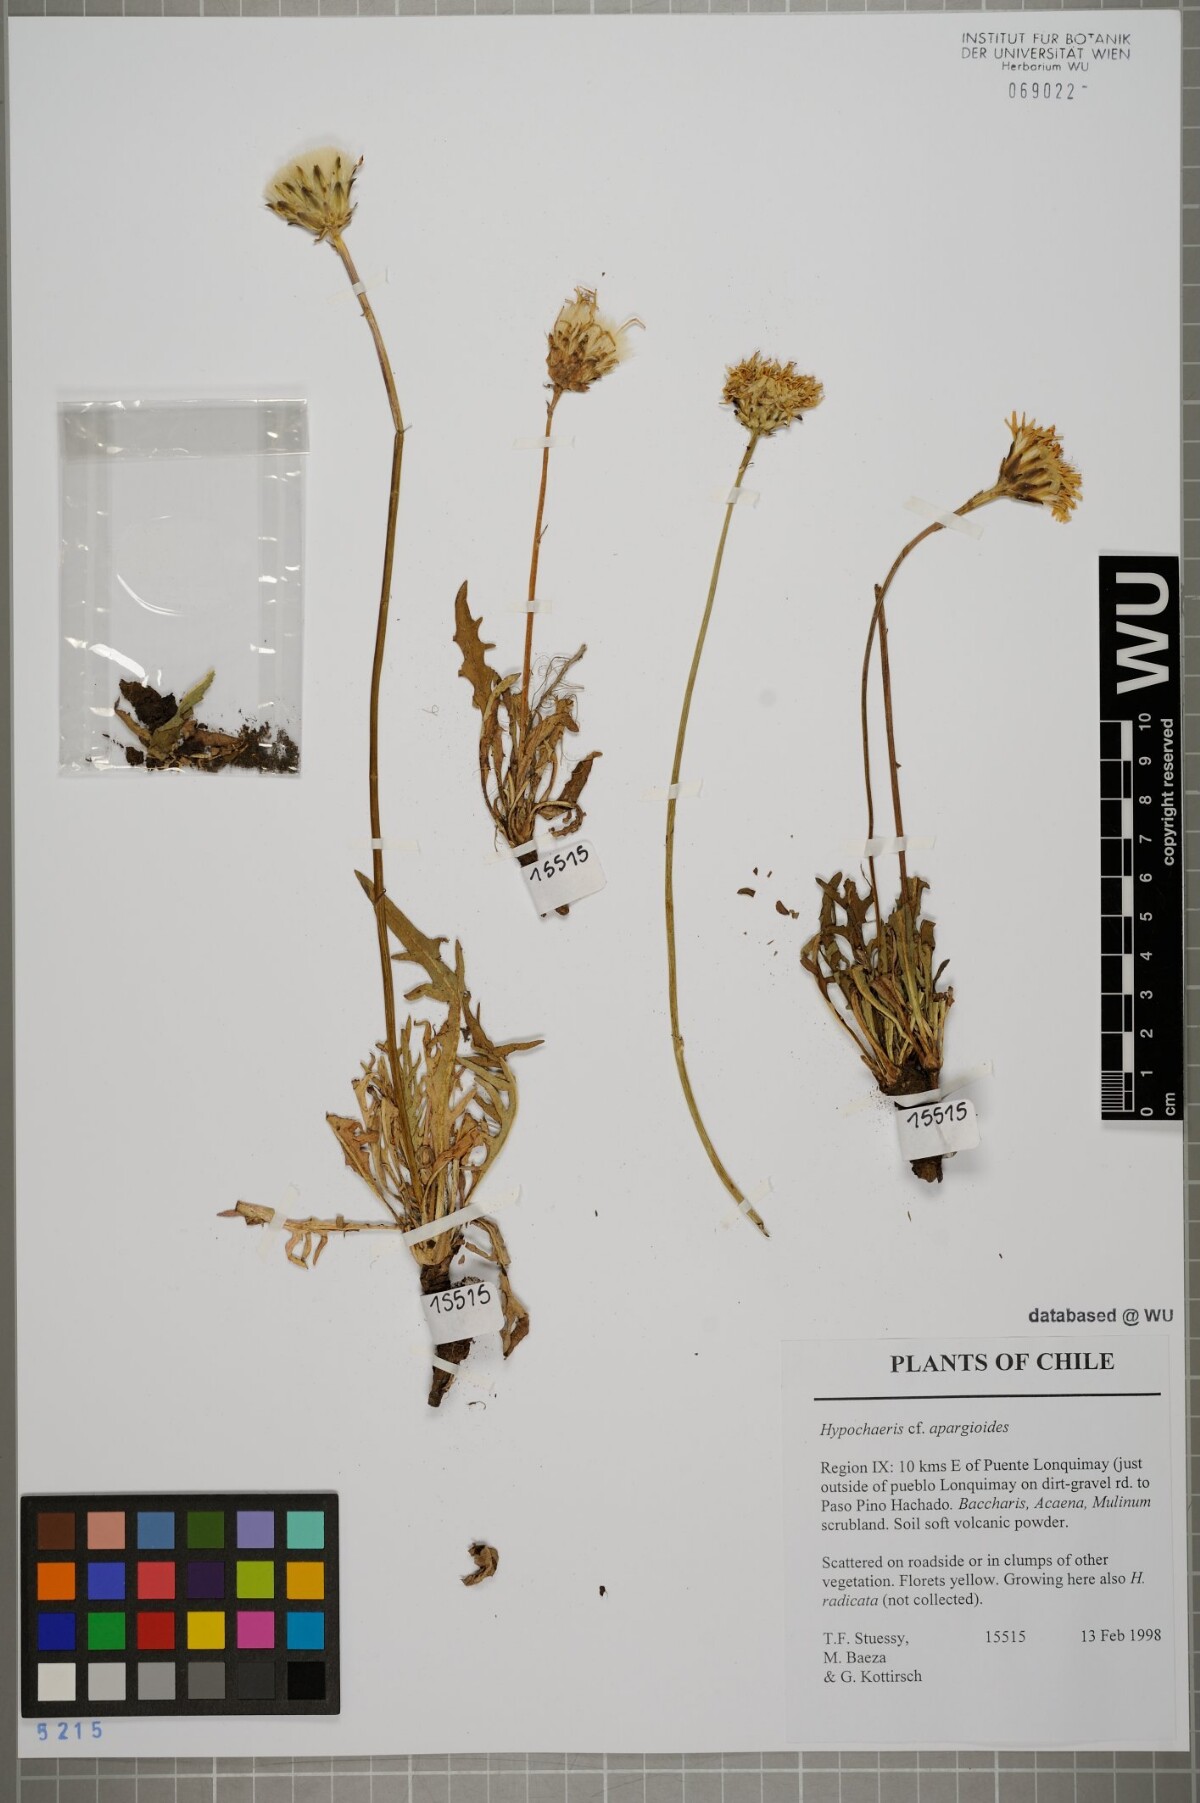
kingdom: Plantae
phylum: Tracheophyta
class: Magnoliopsida
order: Asterales
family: Asteraceae
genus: Hypochaeris
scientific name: Hypochaeris apargioides
